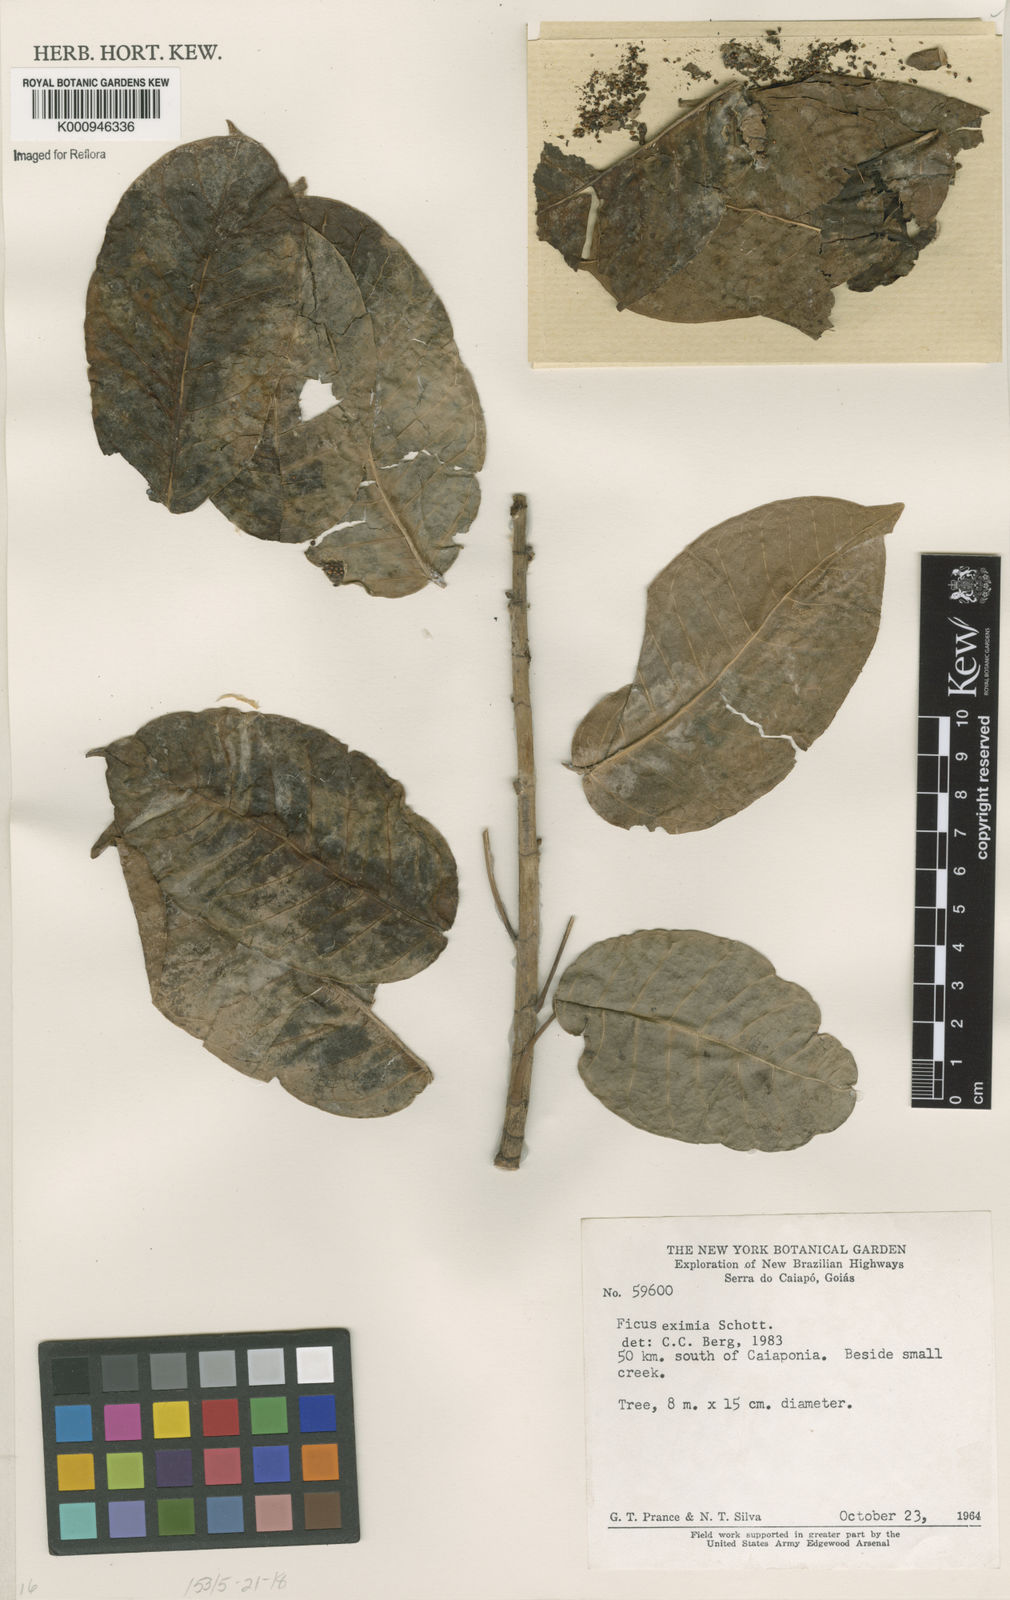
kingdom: Plantae
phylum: Tracheophyta
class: Magnoliopsida
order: Rosales
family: Moraceae
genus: Ficus
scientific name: Ficus eximia
